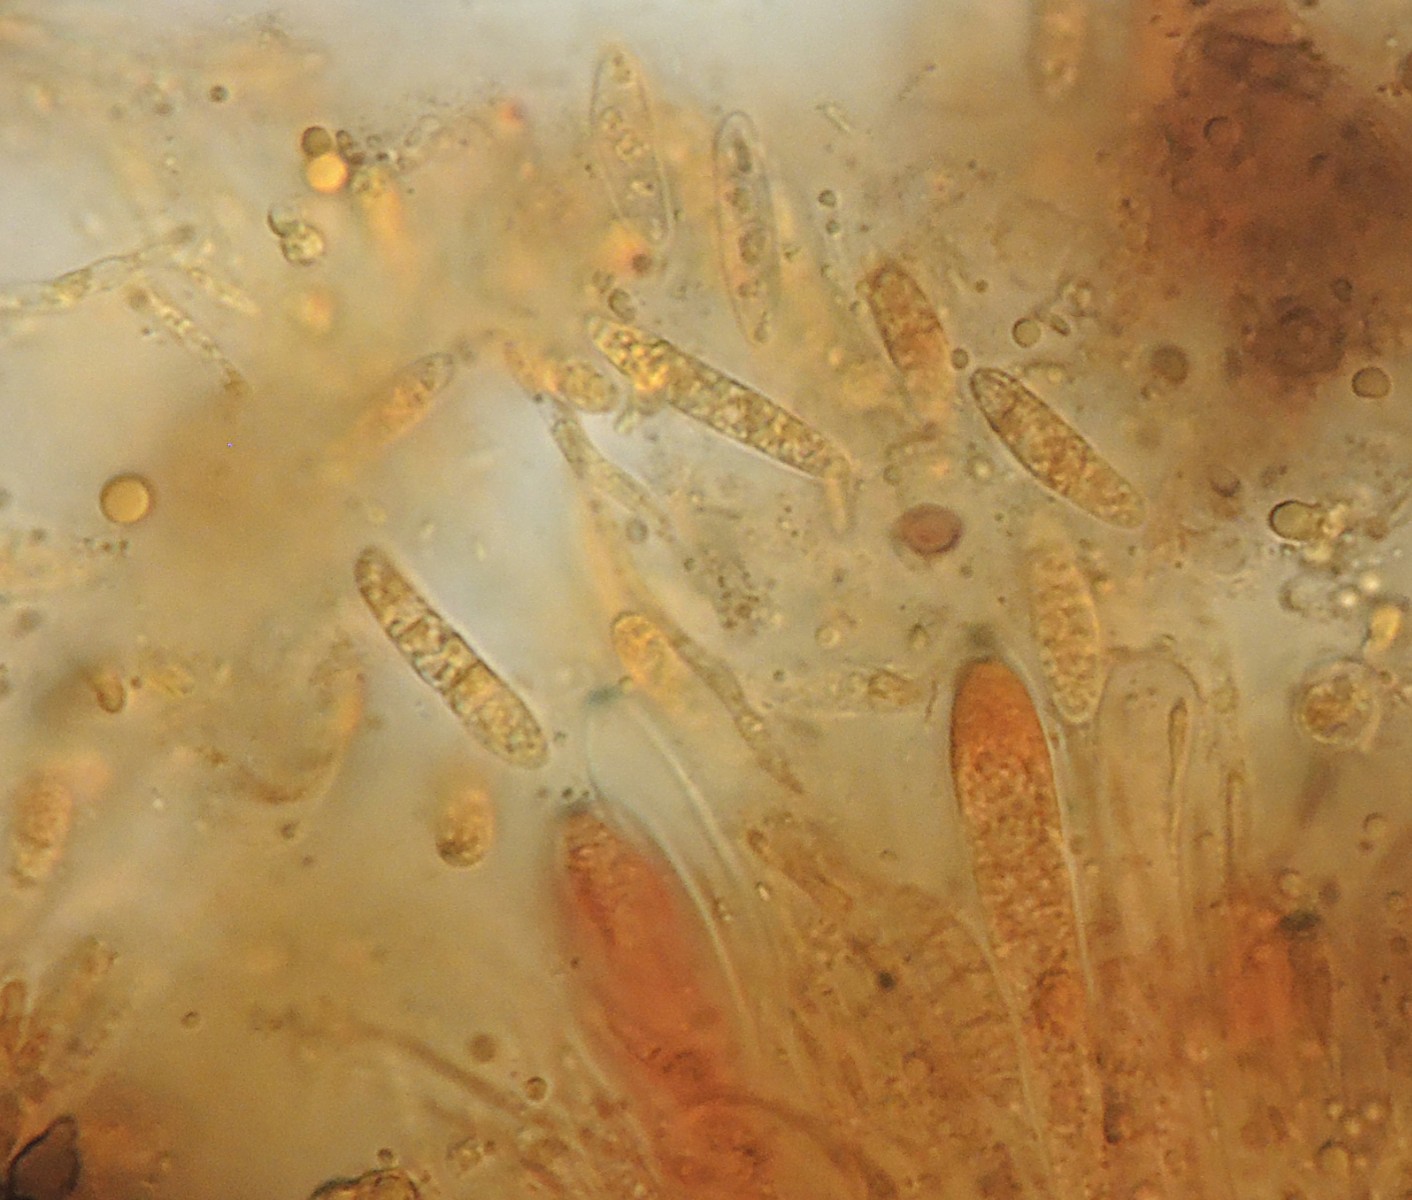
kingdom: Fungi
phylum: Ascomycota
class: Leotiomycetes
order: Helotiales
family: Helotiaceae
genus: Durella
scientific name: Durella macrospora
